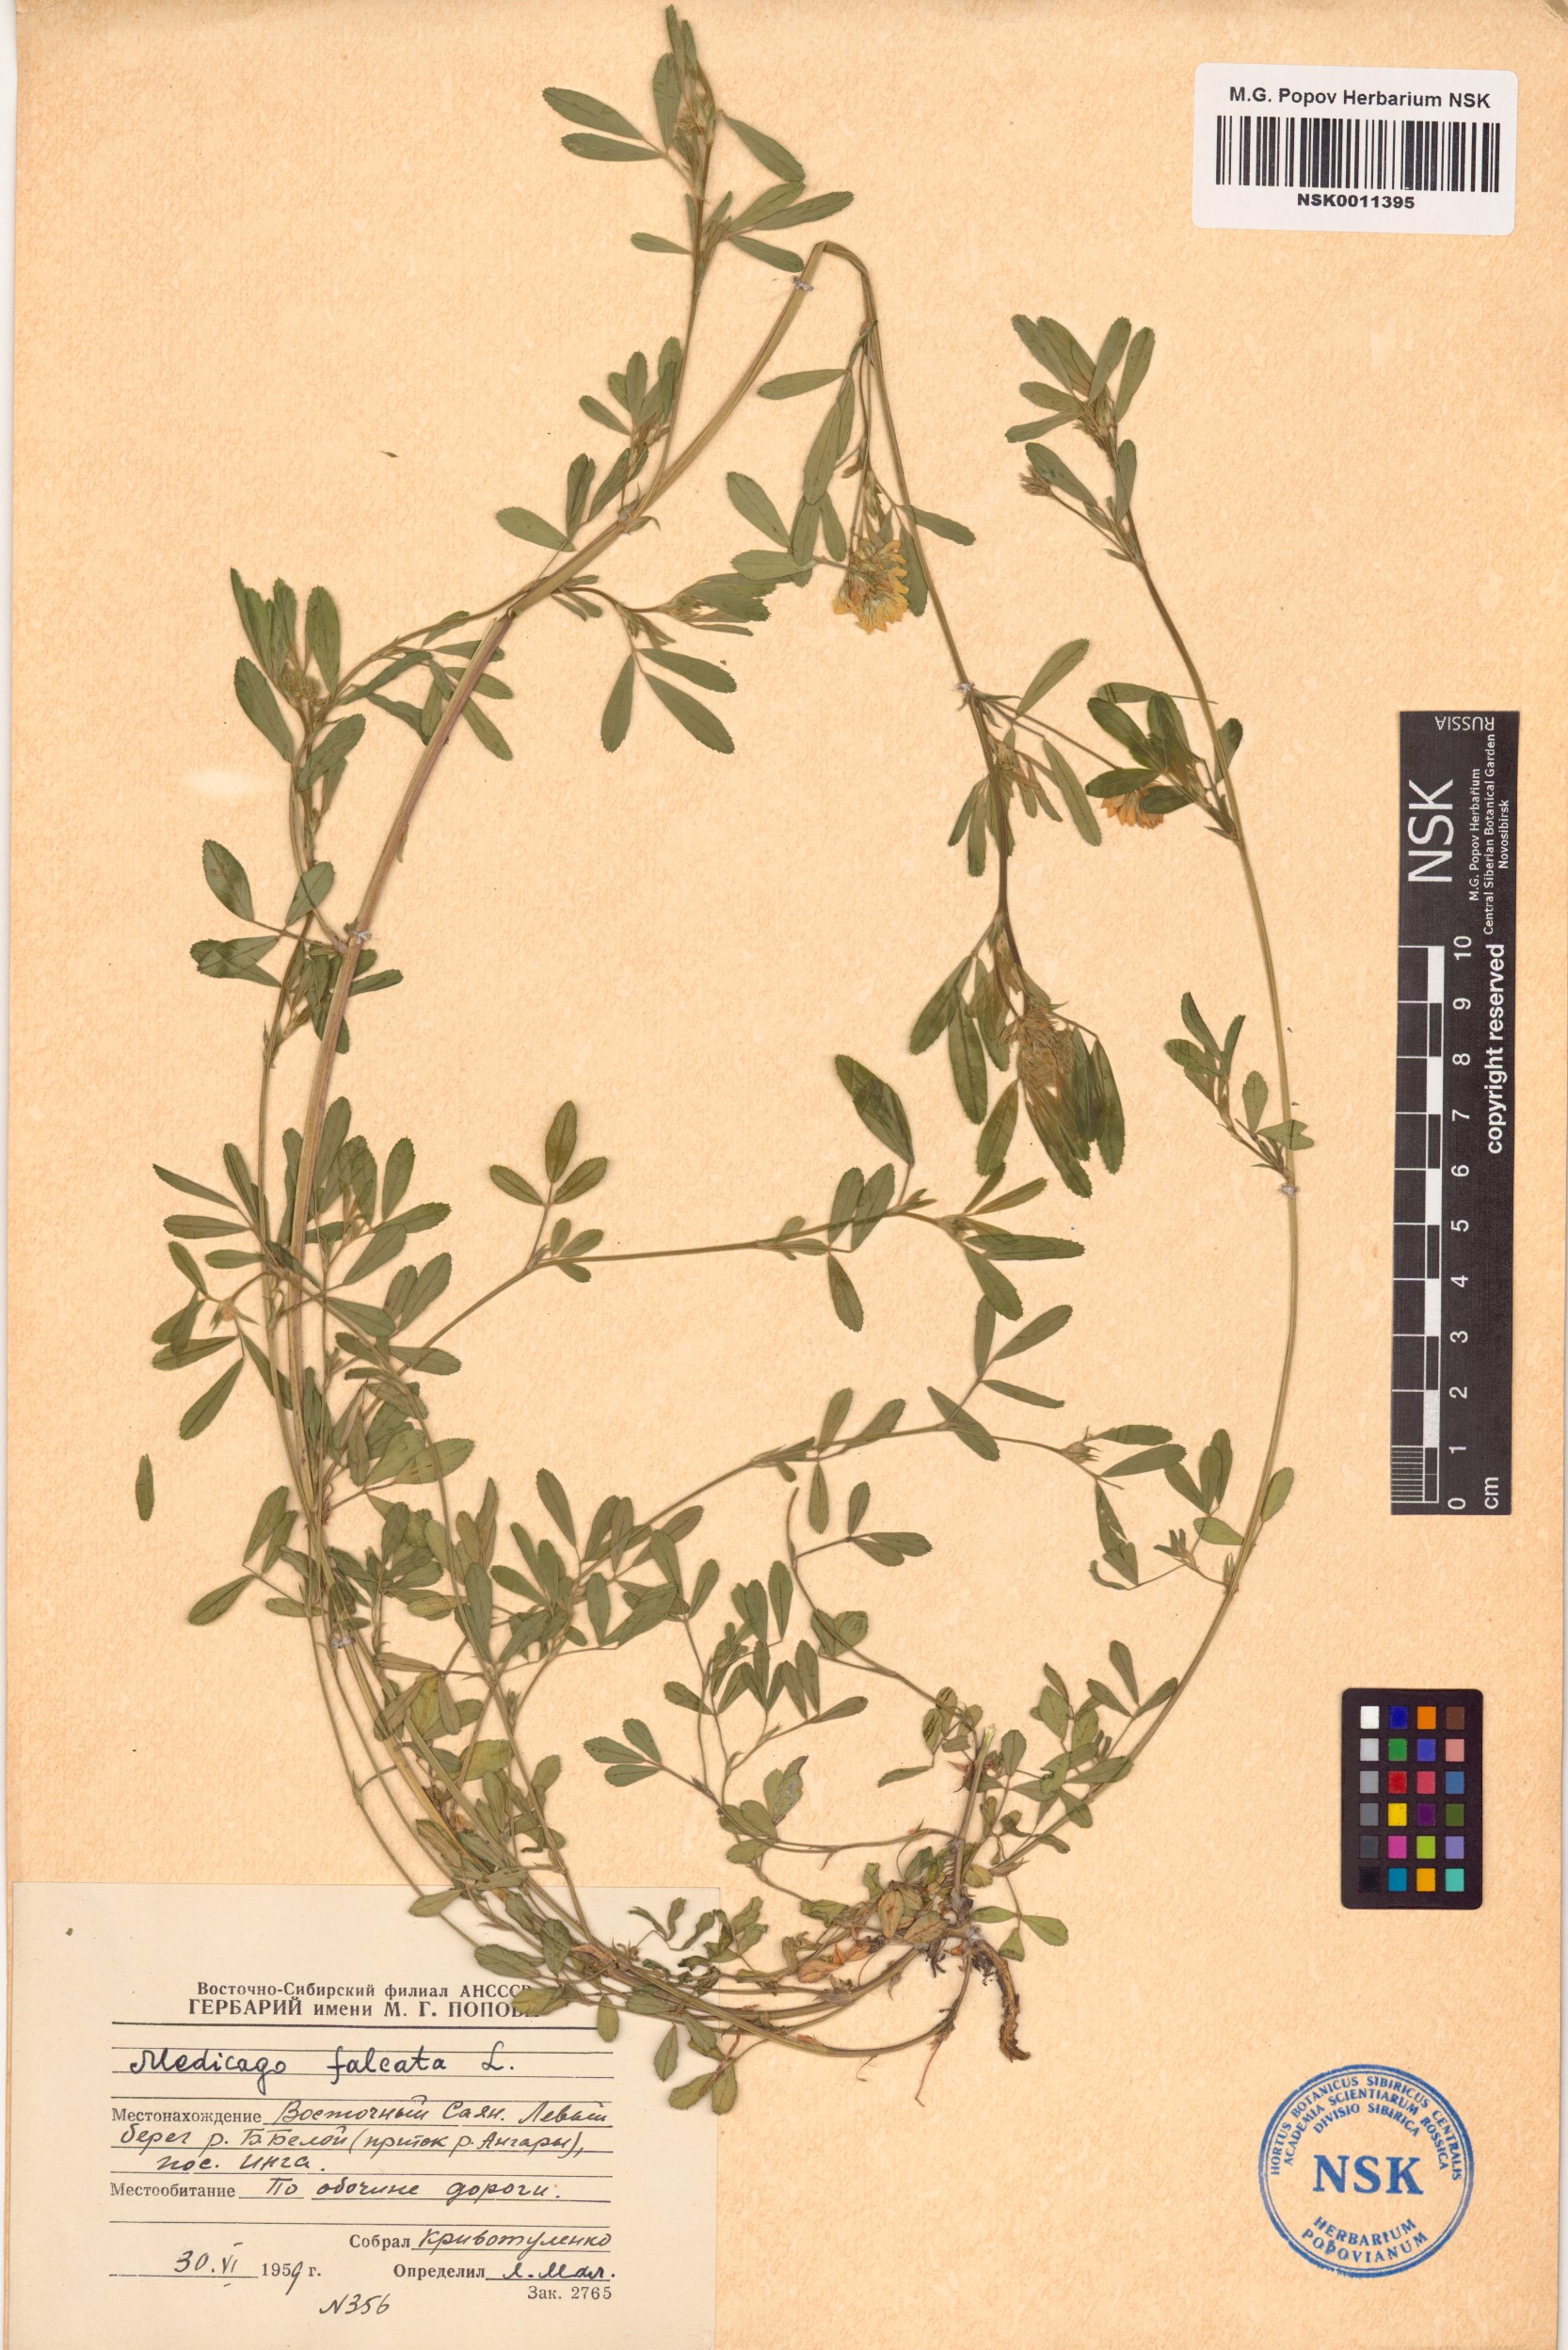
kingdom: Plantae
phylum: Tracheophyta
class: Magnoliopsida
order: Fabales
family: Fabaceae
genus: Medicago
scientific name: Medicago falcata
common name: Sickle medick
